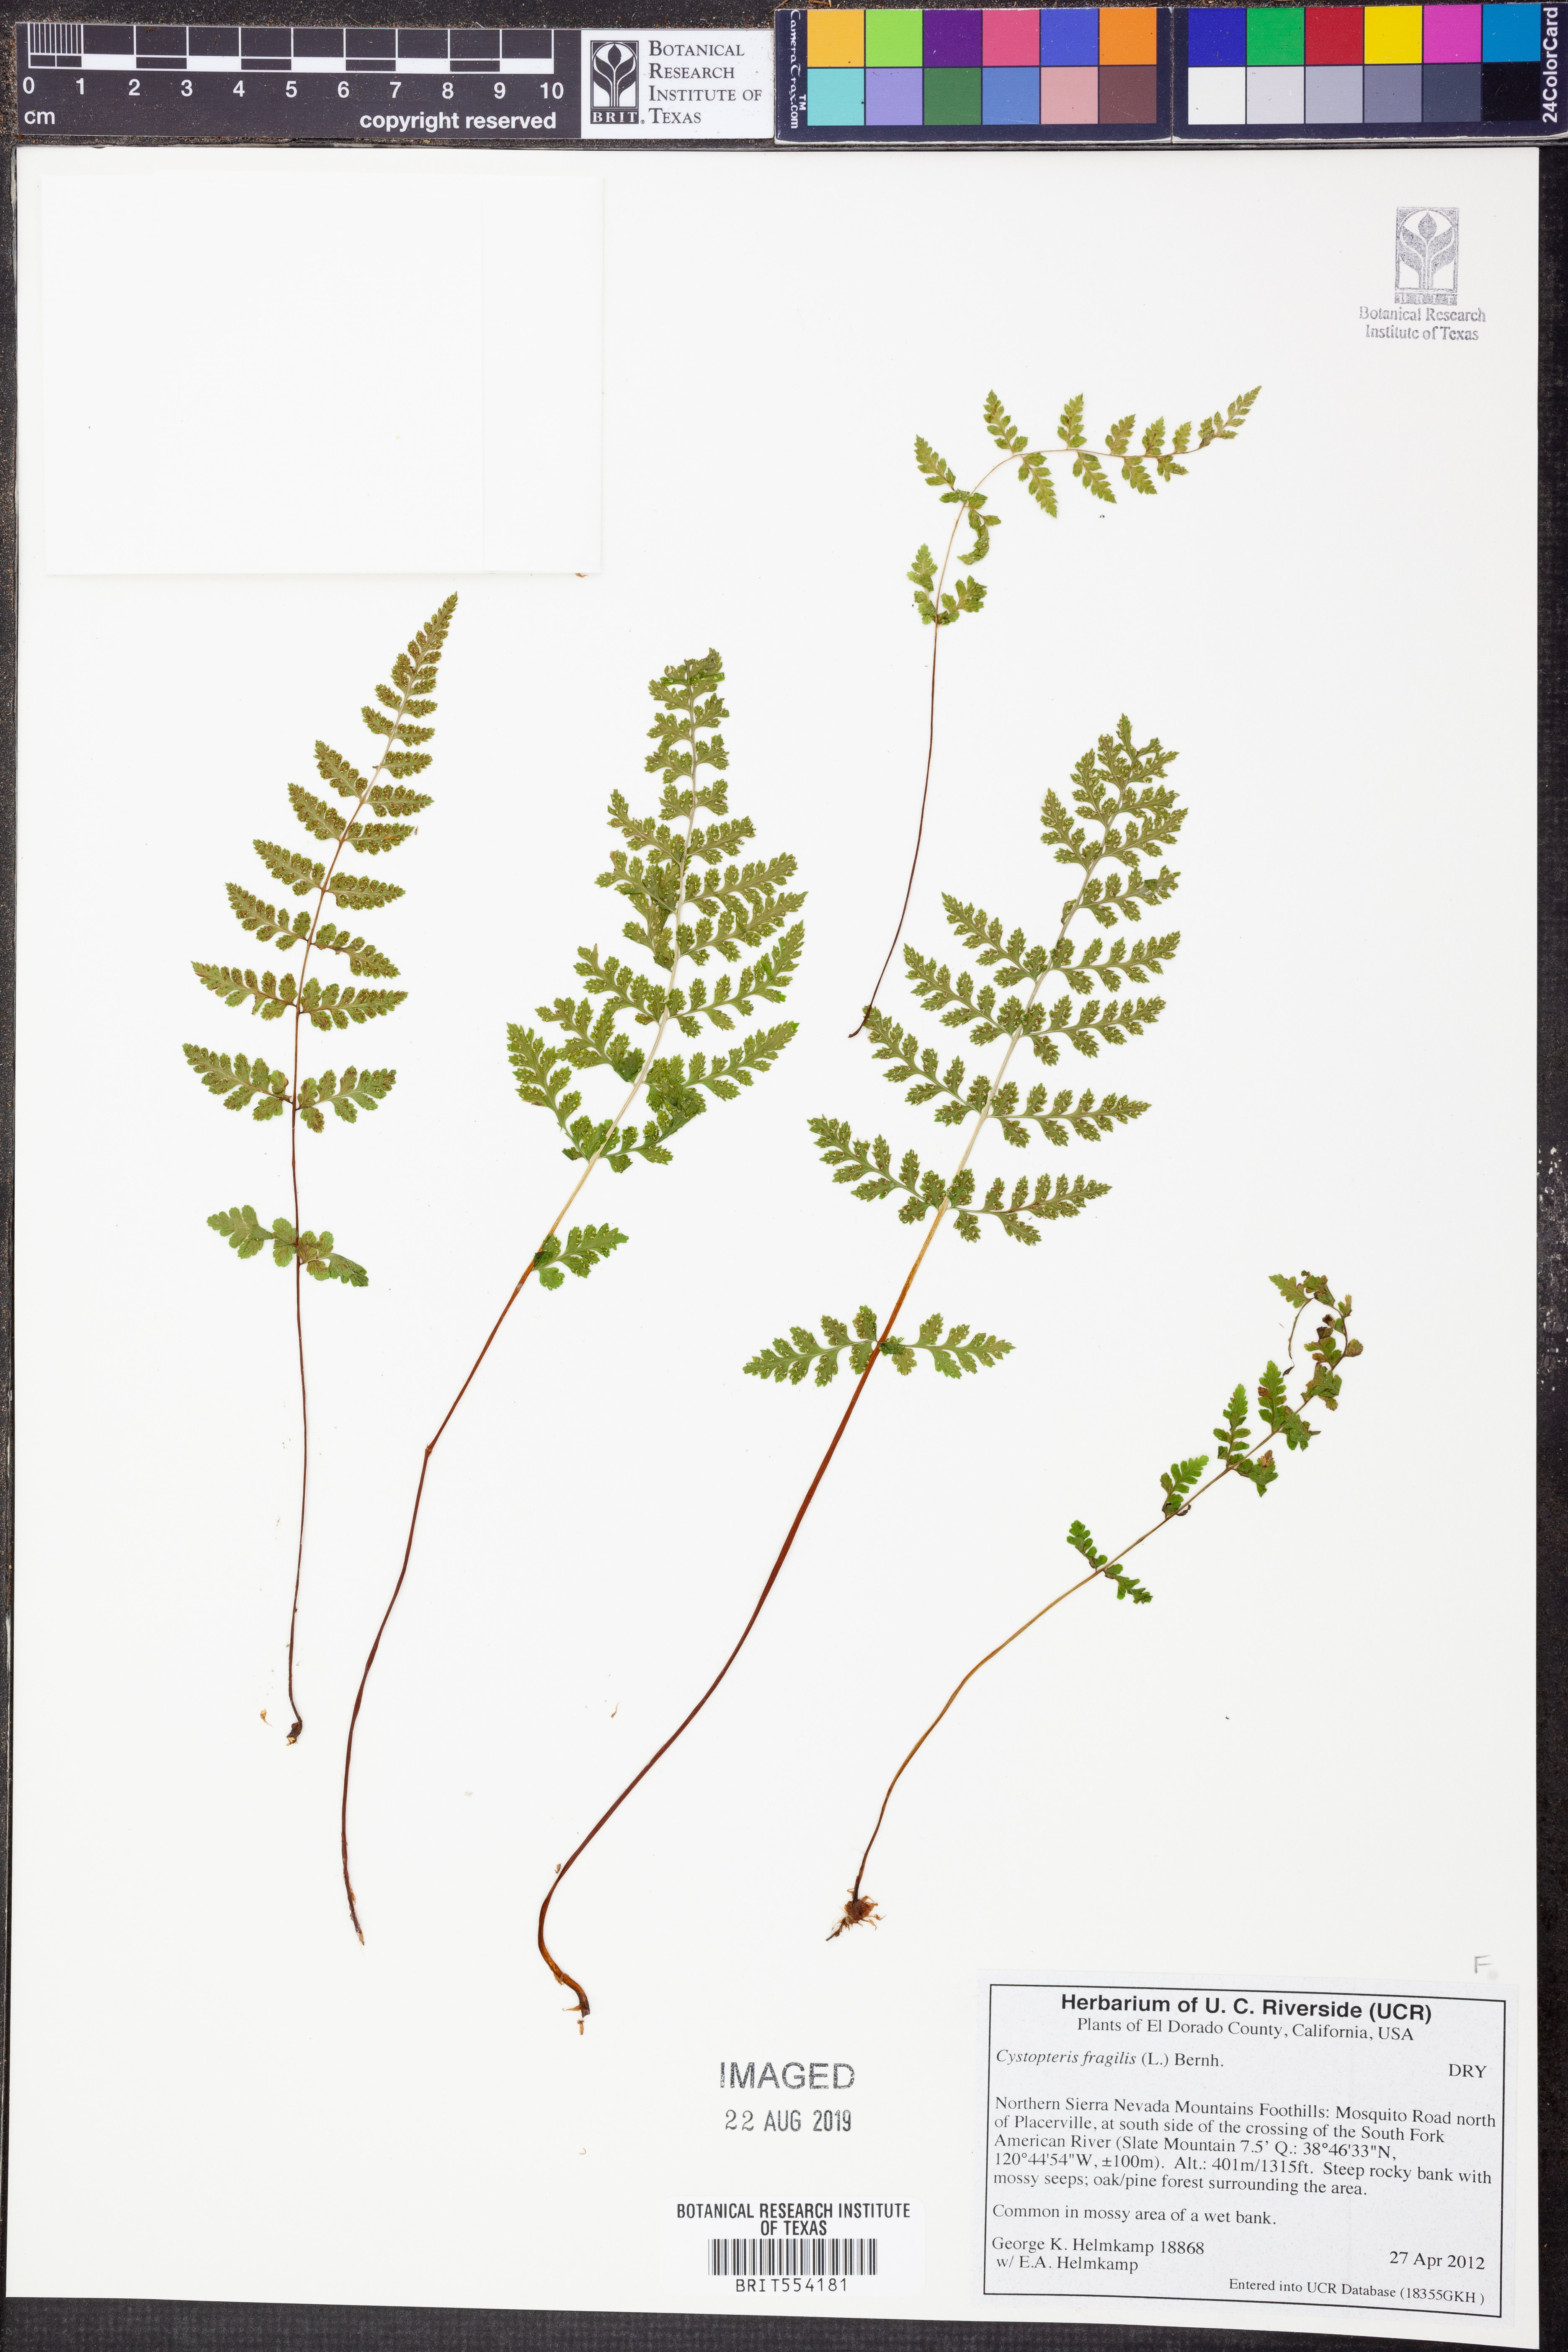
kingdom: Plantae
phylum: Tracheophyta
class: Polypodiopsida
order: Polypodiales
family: Cystopteridaceae
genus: Cystopteris
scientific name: Cystopteris fragilis
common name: Brittle bladder fern
